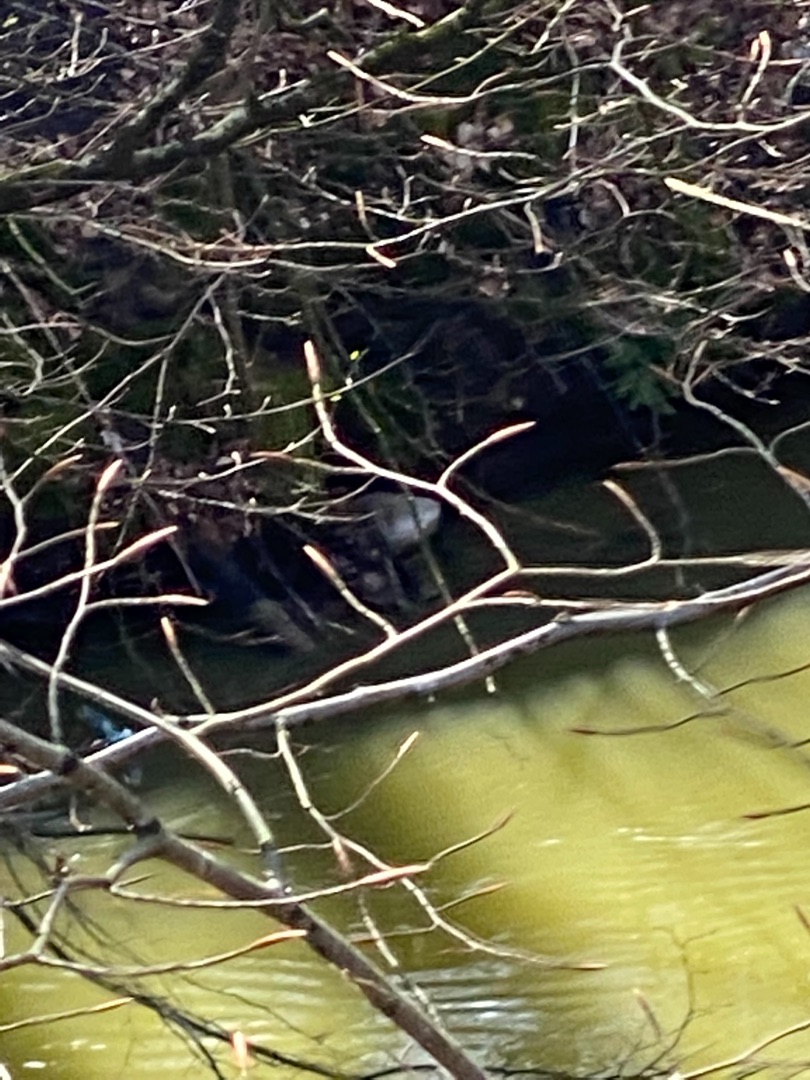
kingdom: Animalia
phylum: Chordata
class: Aves
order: Coraciiformes
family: Alcedinidae
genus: Alcedo
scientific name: Alcedo atthis
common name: Isfugl
